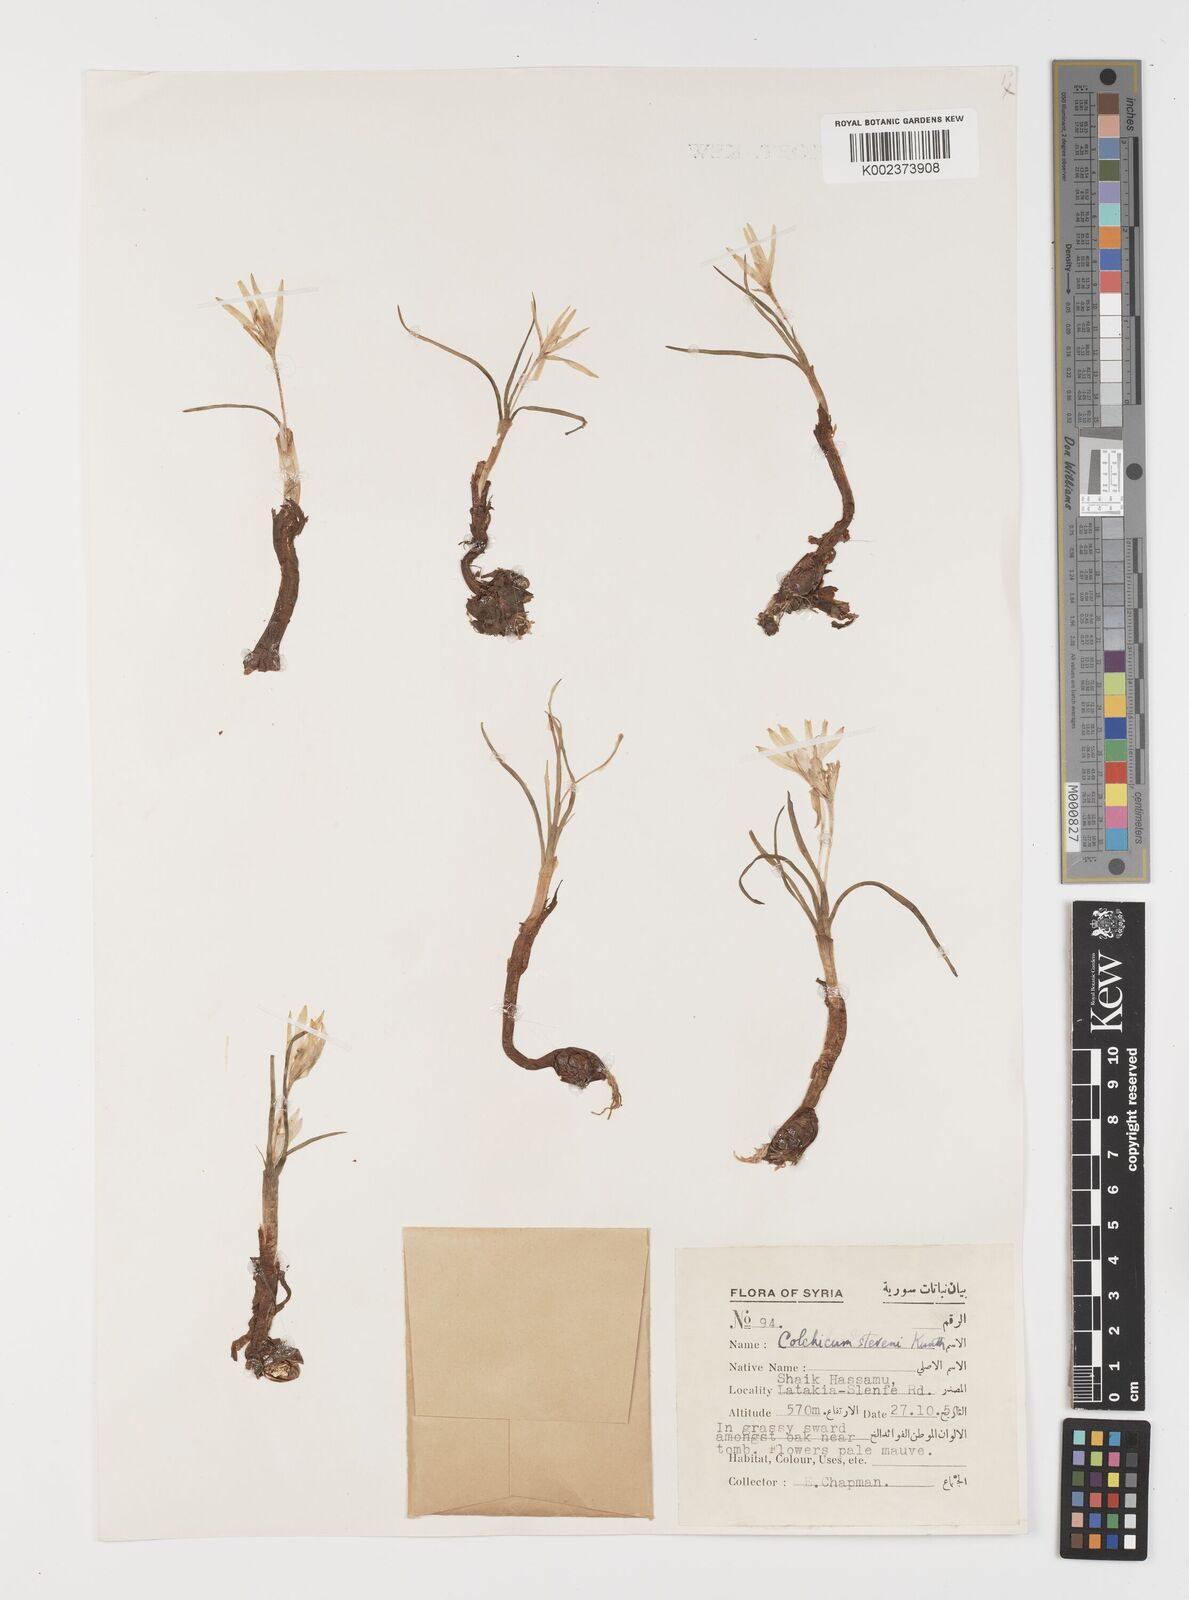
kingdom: Plantae
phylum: Tracheophyta
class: Liliopsida
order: Liliales
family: Colchicaceae
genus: Colchicum
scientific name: Colchicum stevenii
